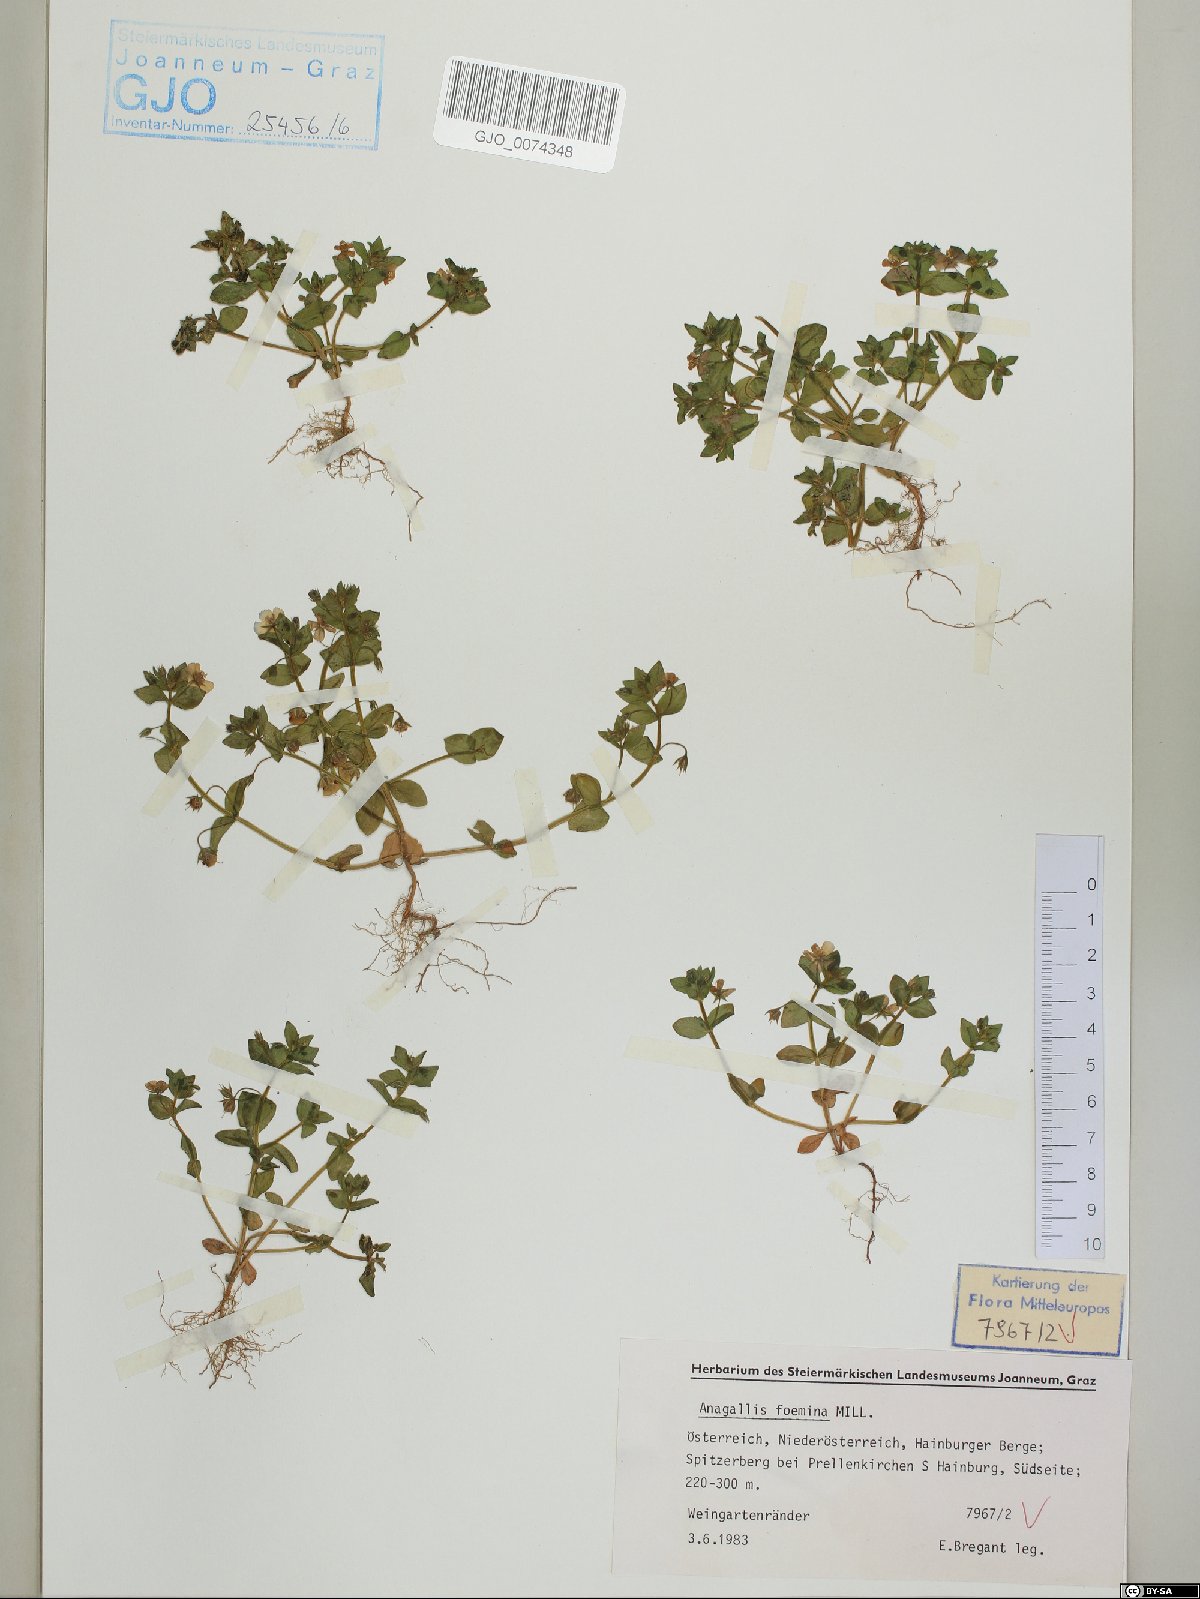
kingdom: Plantae
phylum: Tracheophyta
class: Magnoliopsida
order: Ericales
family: Primulaceae
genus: Lysimachia
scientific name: Lysimachia foemina
